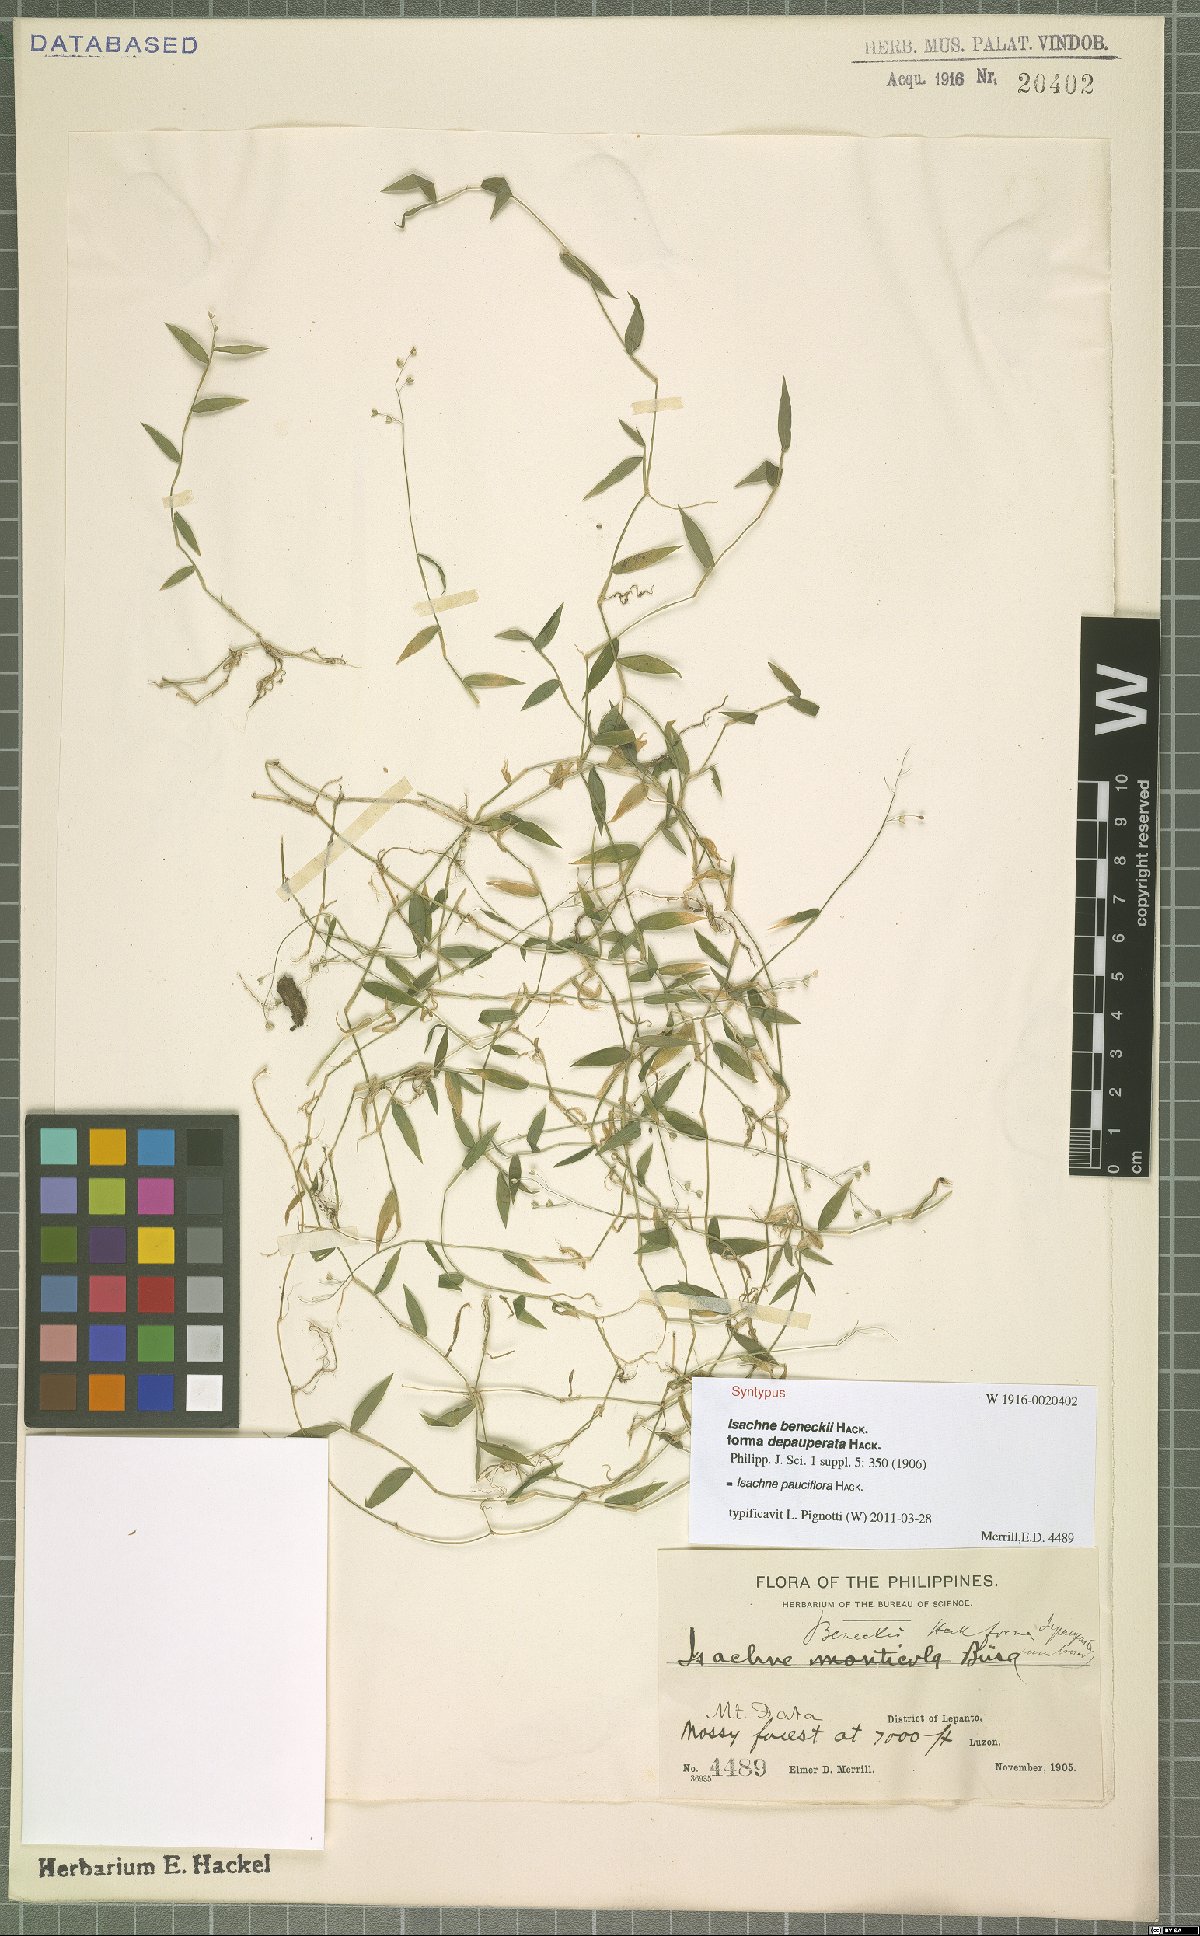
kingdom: Plantae
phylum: Tracheophyta
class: Liliopsida
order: Poales
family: Poaceae
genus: Isachne
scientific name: Isachne myosotis
